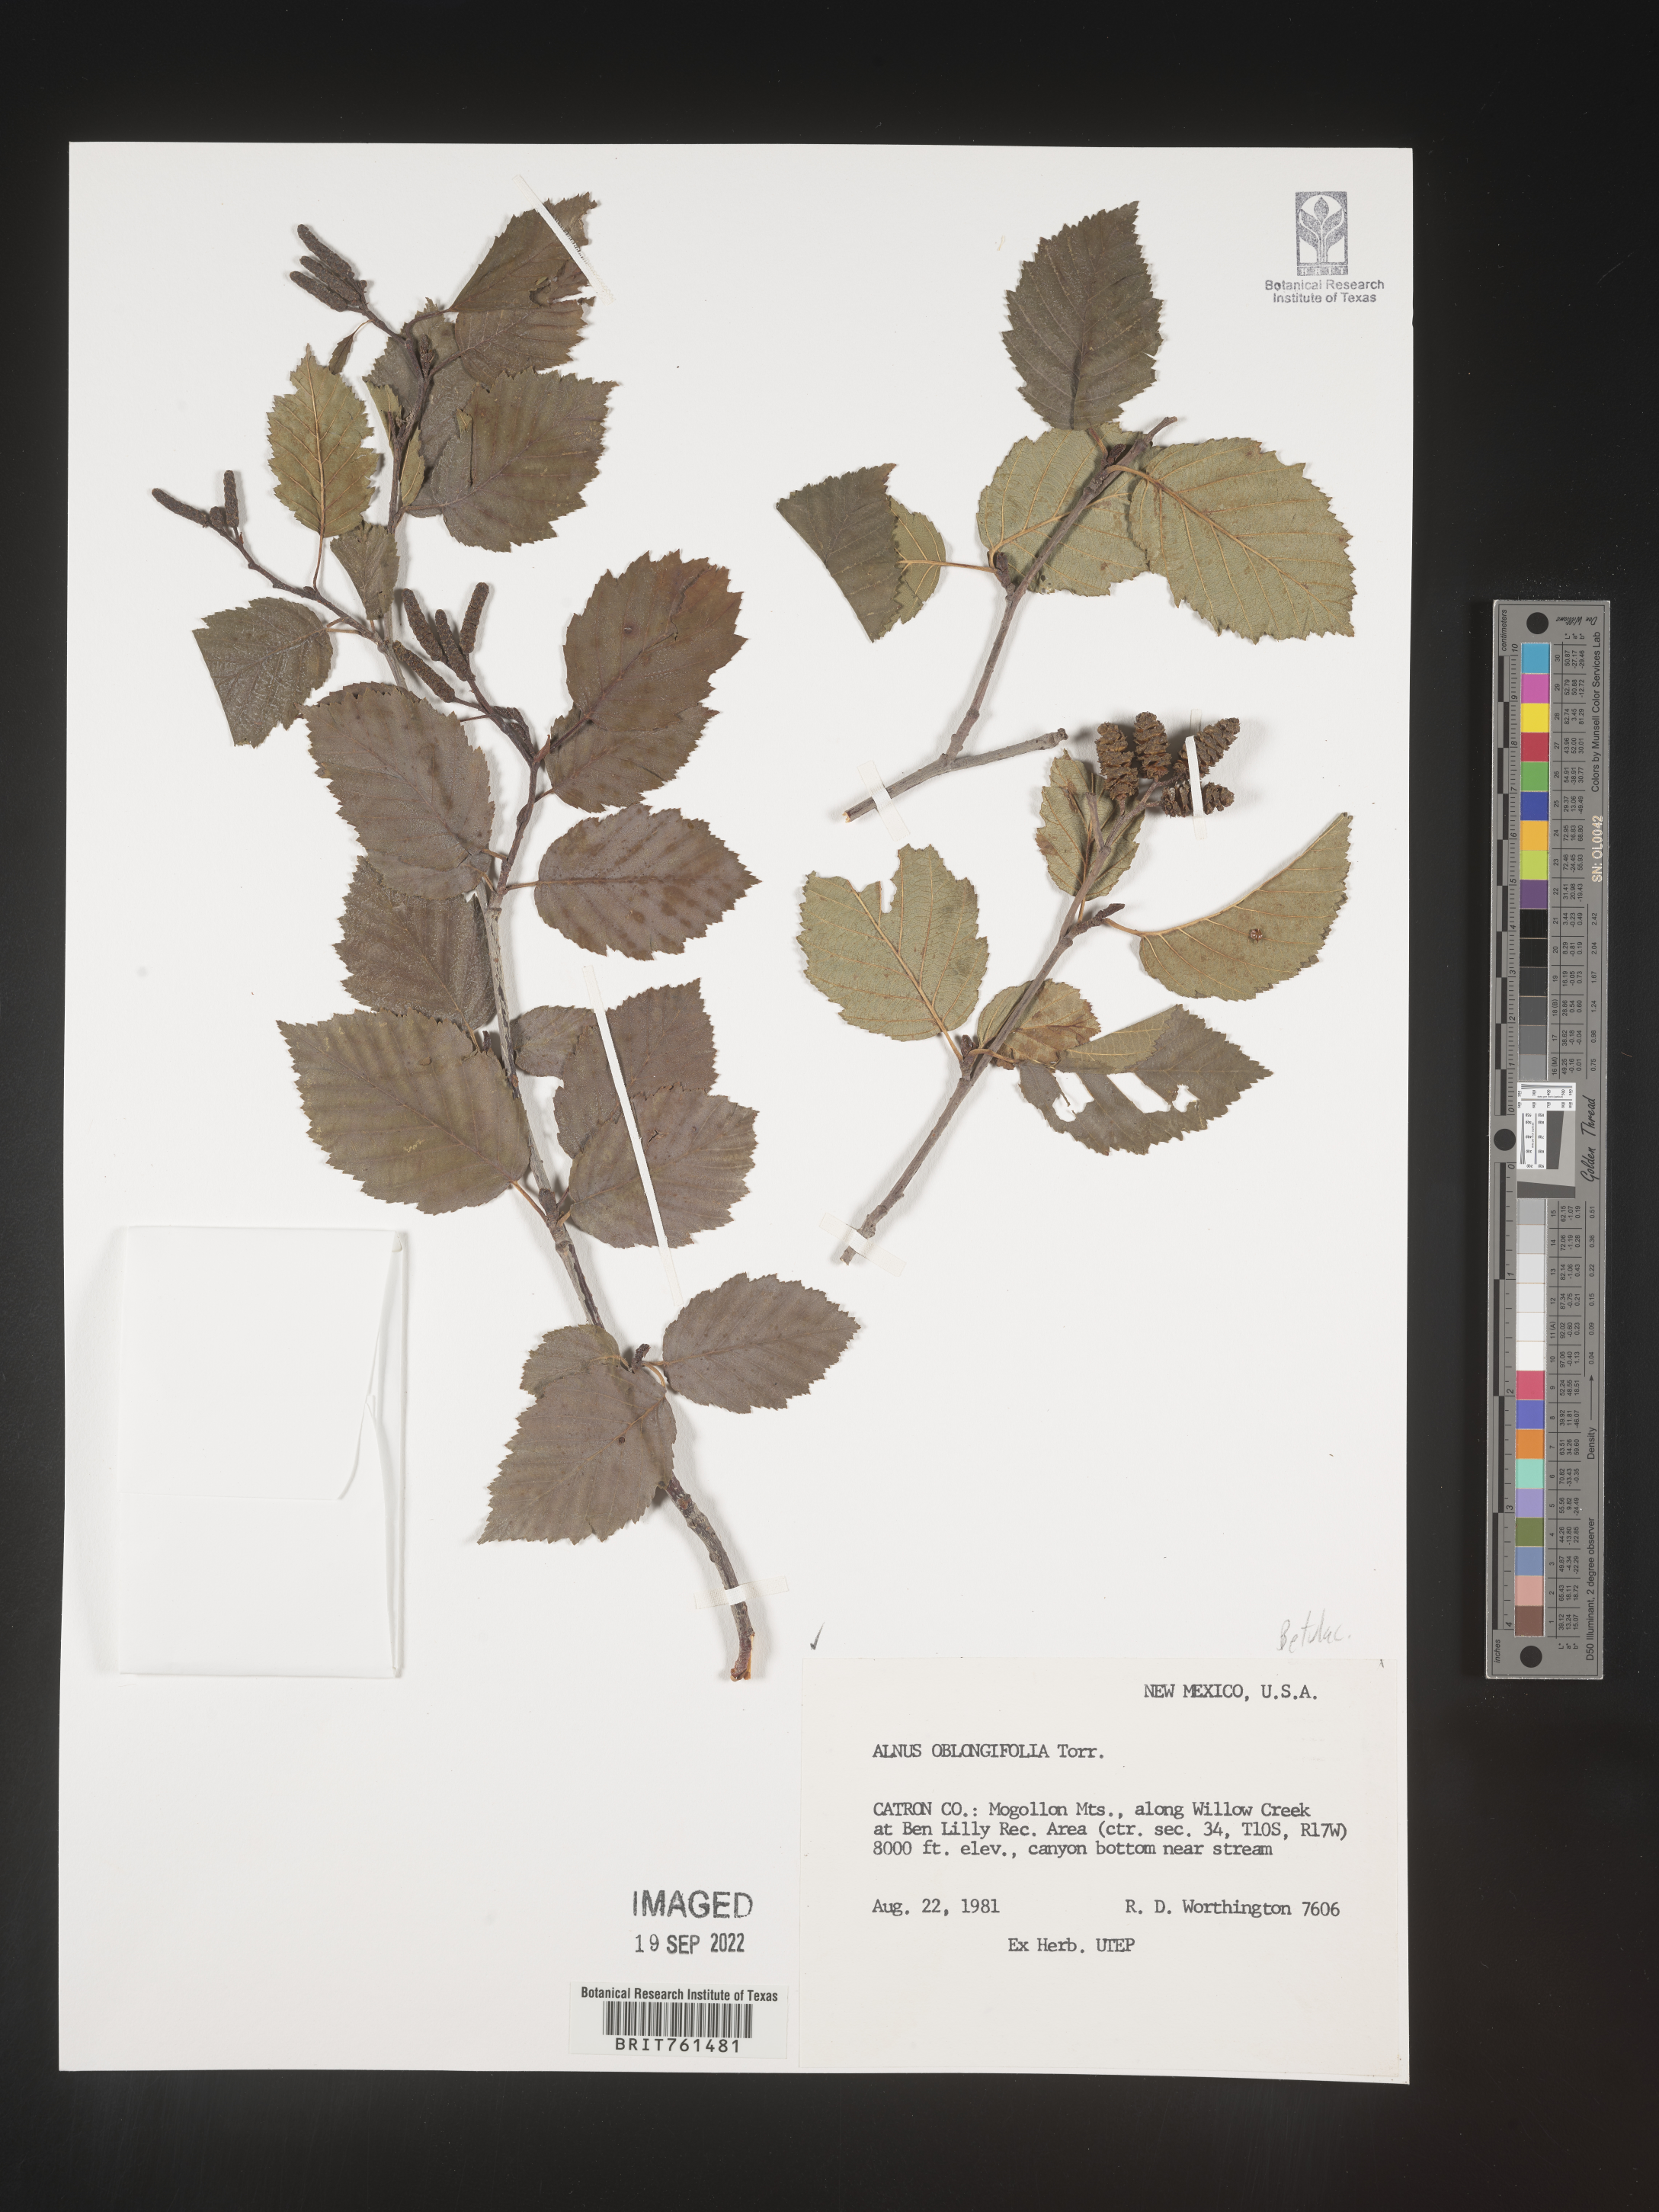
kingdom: Plantae
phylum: Tracheophyta
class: Magnoliopsida
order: Fagales
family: Betulaceae
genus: Alnus
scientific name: Alnus
